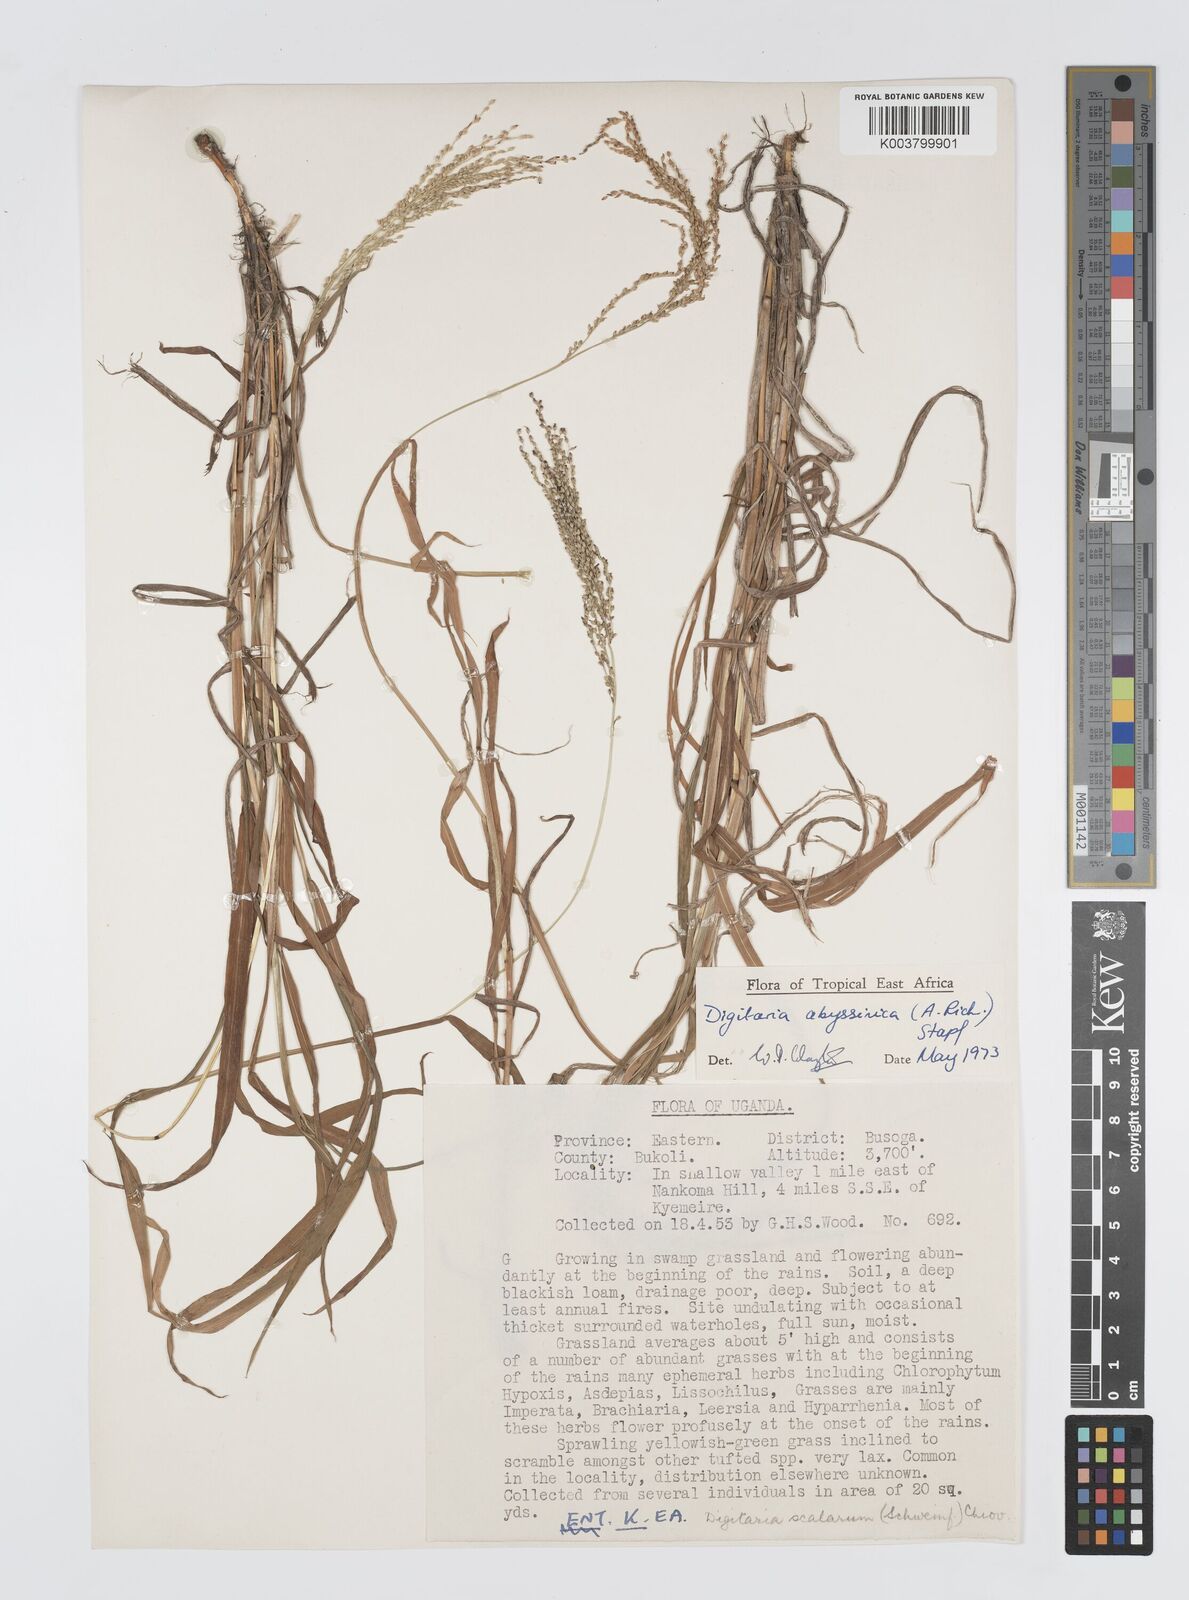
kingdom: Plantae
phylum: Tracheophyta
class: Liliopsida
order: Poales
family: Poaceae
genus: Digitaria
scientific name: Digitaria abyssinica
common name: African couchgrass
